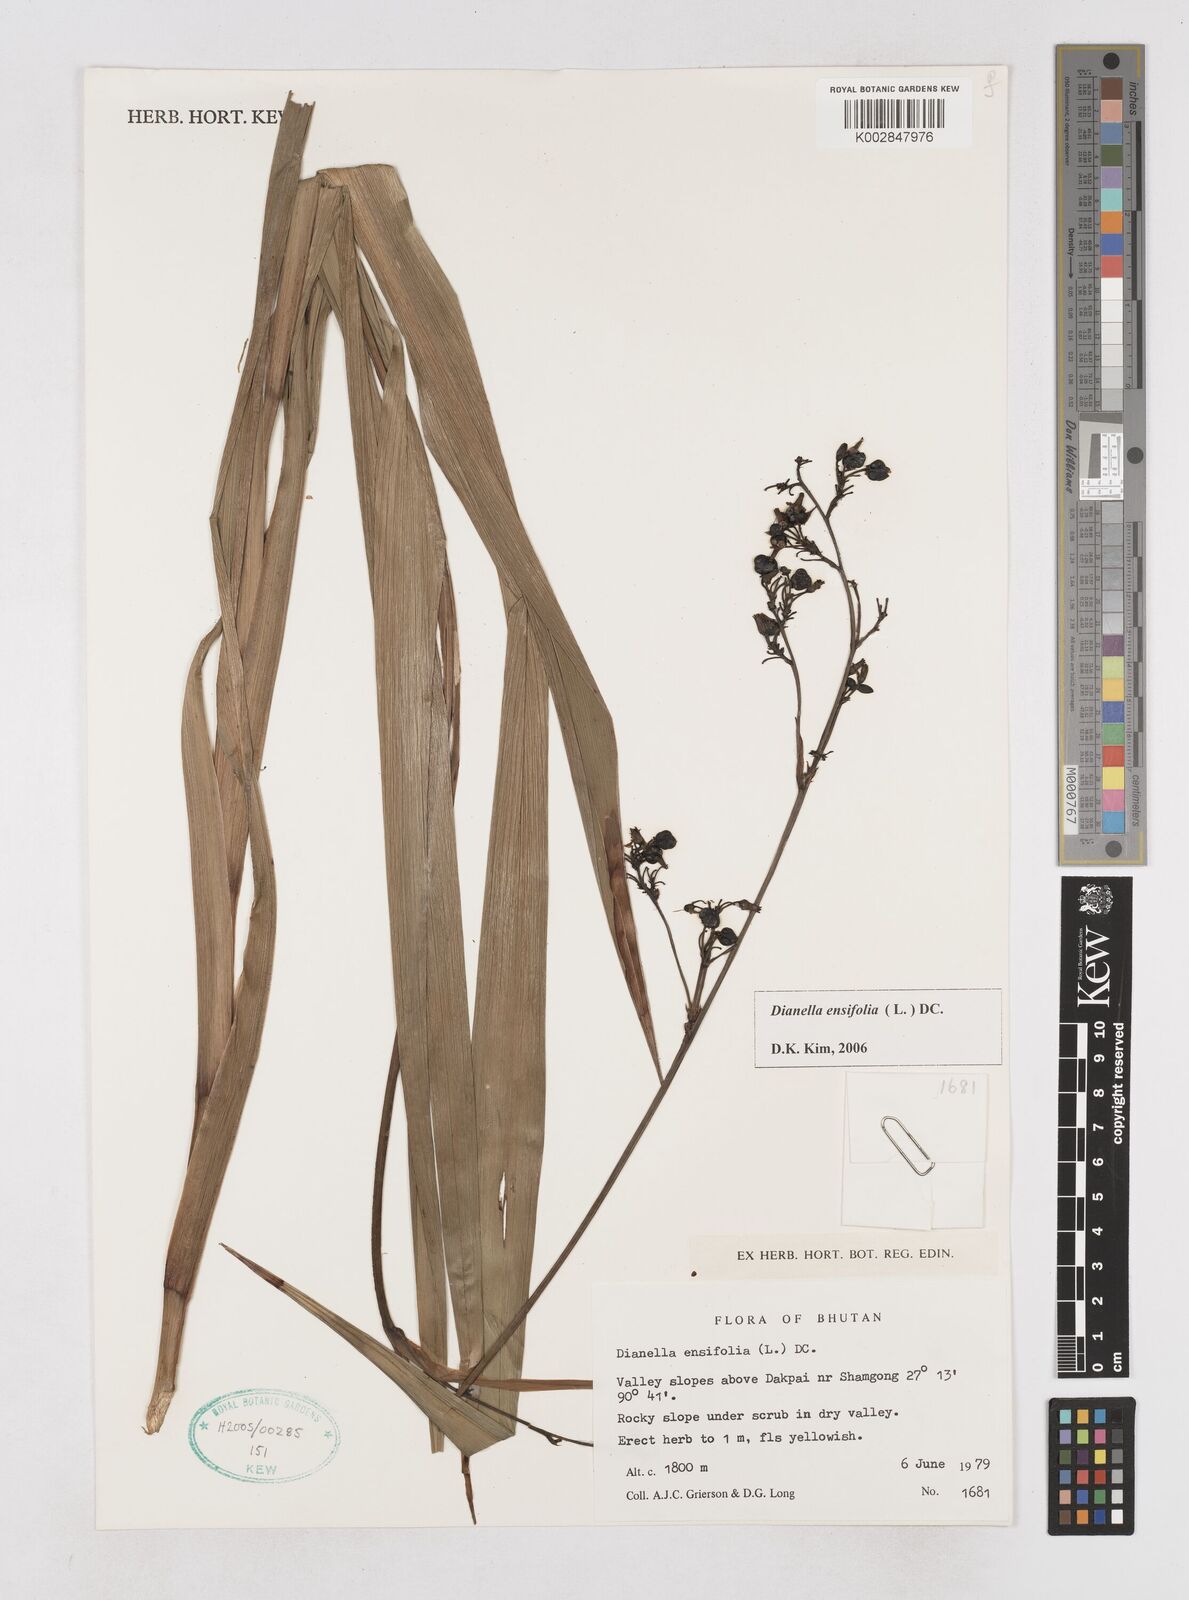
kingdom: Plantae
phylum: Tracheophyta
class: Liliopsida
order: Asparagales
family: Asphodelaceae
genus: Dianella
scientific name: Dianella ensifolia
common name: New zealand lilyplant
